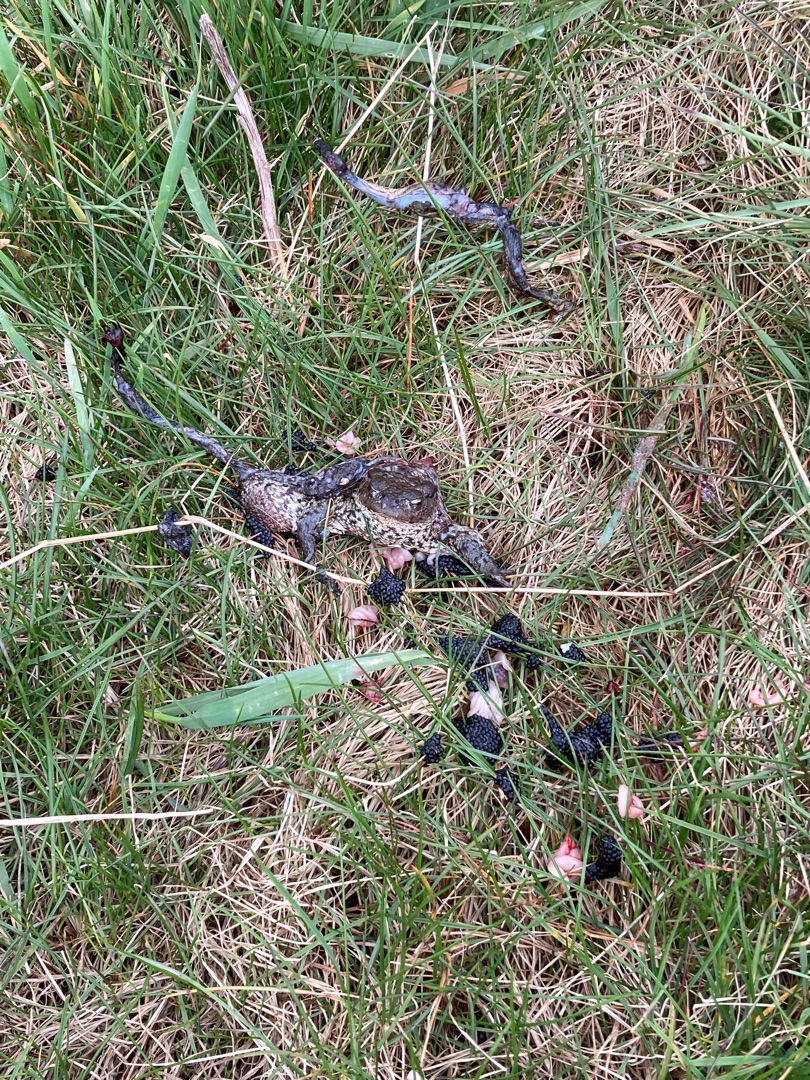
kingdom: Animalia
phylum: Chordata
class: Amphibia
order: Anura
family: Bufonidae
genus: Bufo
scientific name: Bufo bufo
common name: Skrubtudse
